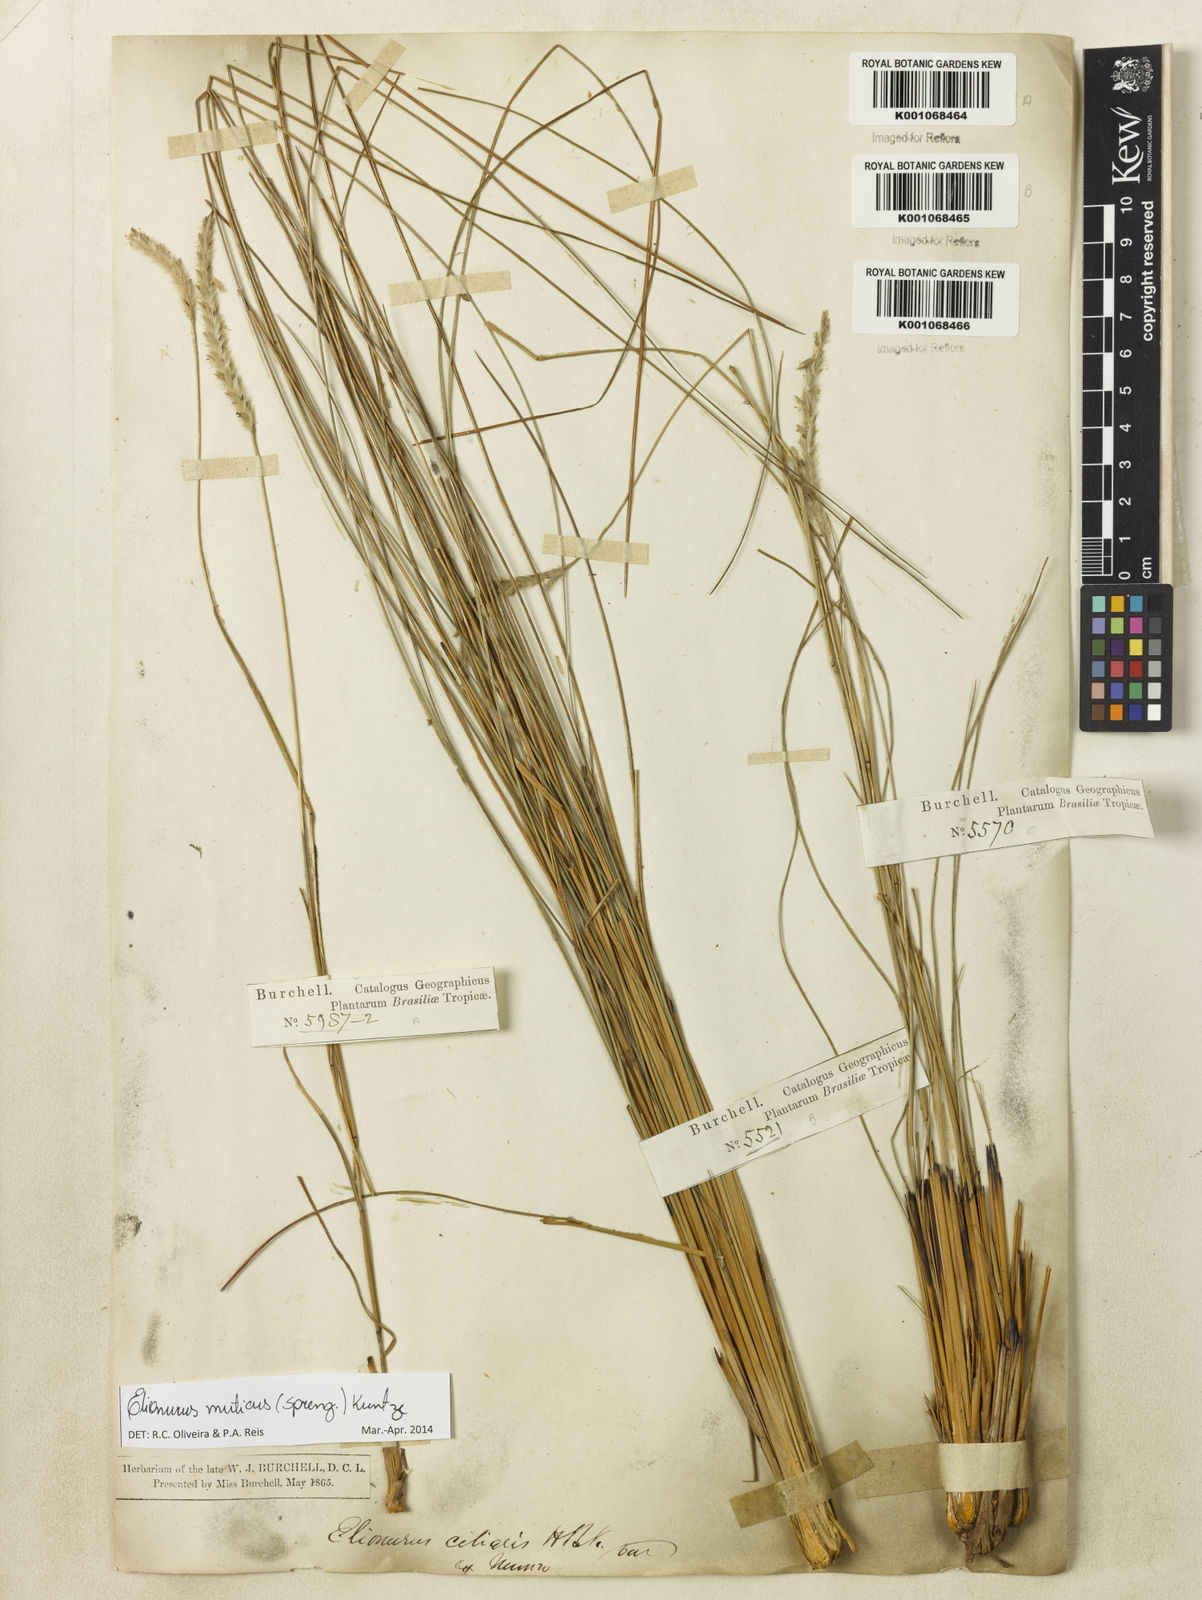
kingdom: Plantae
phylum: Tracheophyta
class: Liliopsida
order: Poales
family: Poaceae
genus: Elionurus
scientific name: Elionurus muticus
